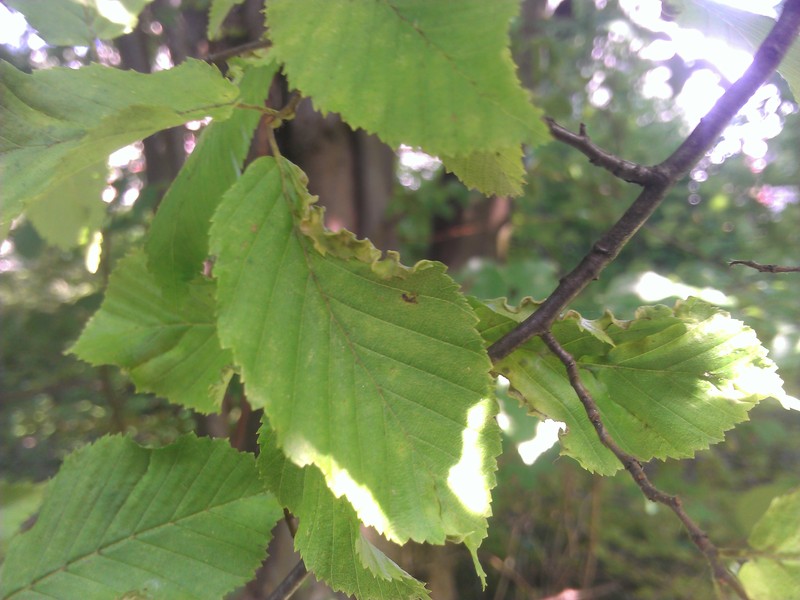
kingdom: Animalia
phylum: Arthropoda
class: Arachnida
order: Trombidiformes
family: Eriophyidae
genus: Stenacis
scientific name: Stenacis evonymi
